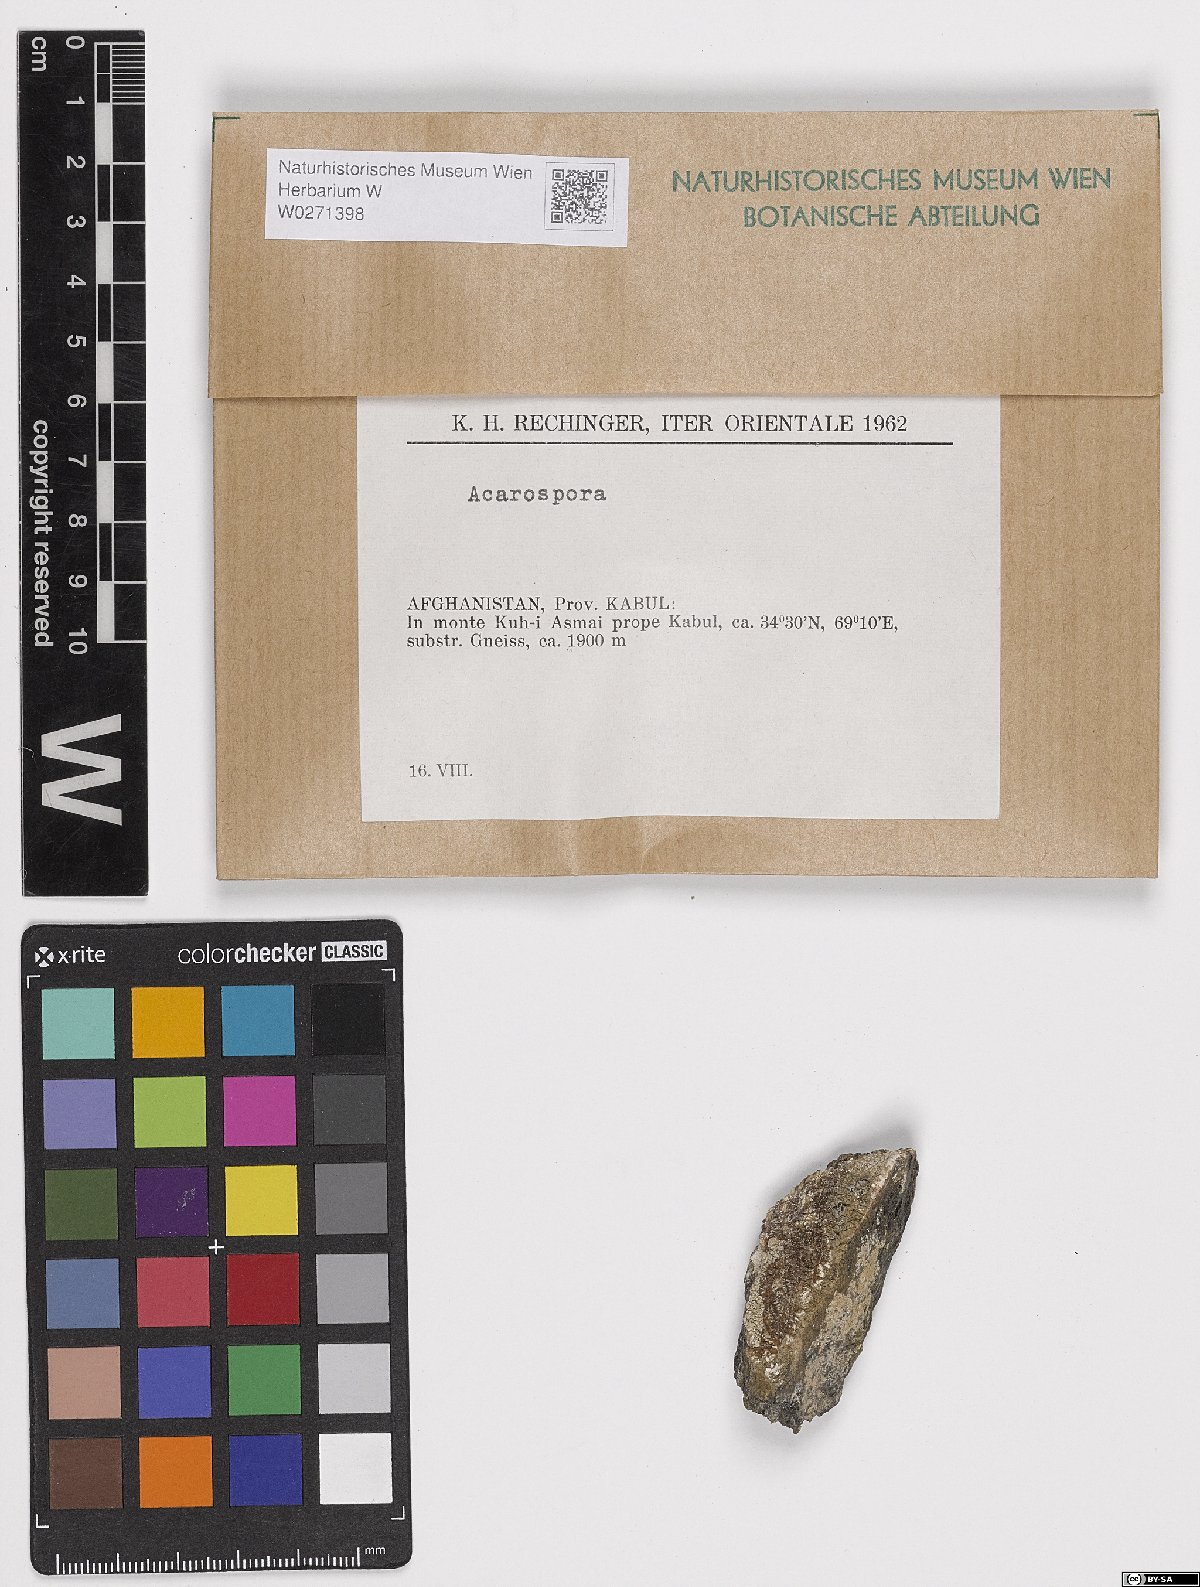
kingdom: Fungi
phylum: Ascomycota
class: Lecanoromycetes
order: Acarosporales
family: Acarosporaceae
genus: Acarospora
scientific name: Acarospora
